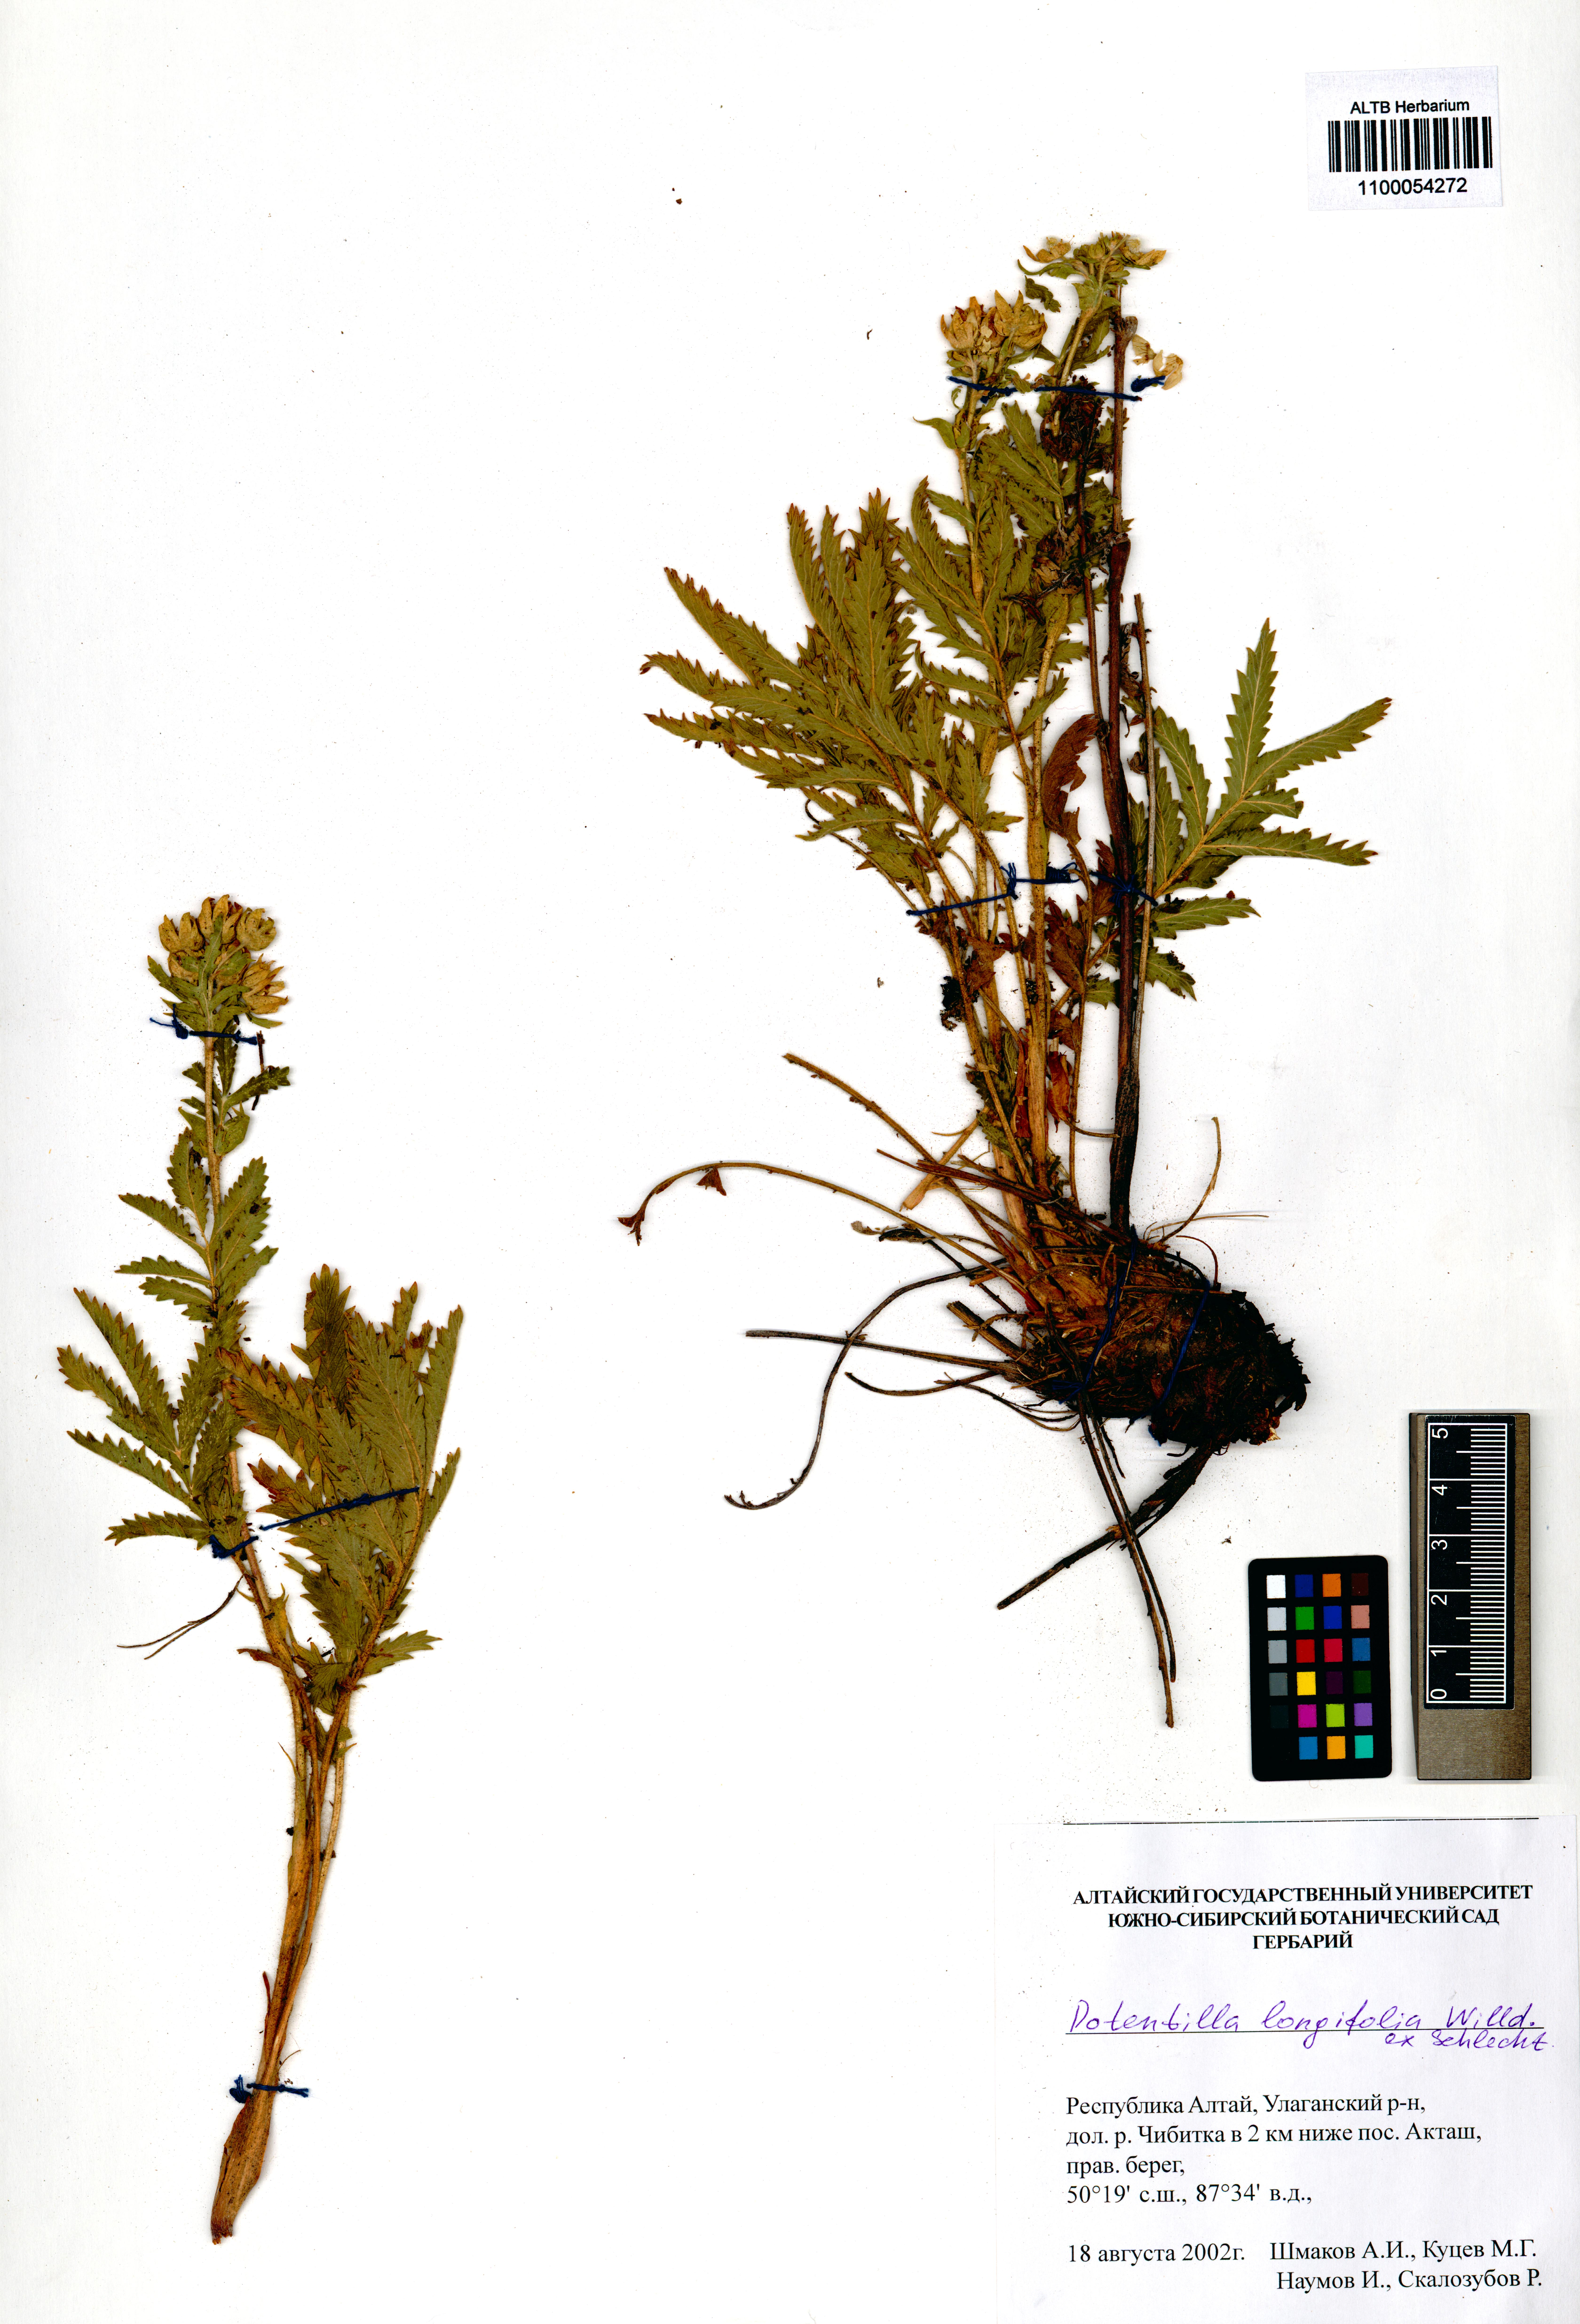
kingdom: Plantae
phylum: Tracheophyta
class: Magnoliopsida
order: Rosales
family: Rosaceae
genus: Potentilla
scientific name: Potentilla longifolia
